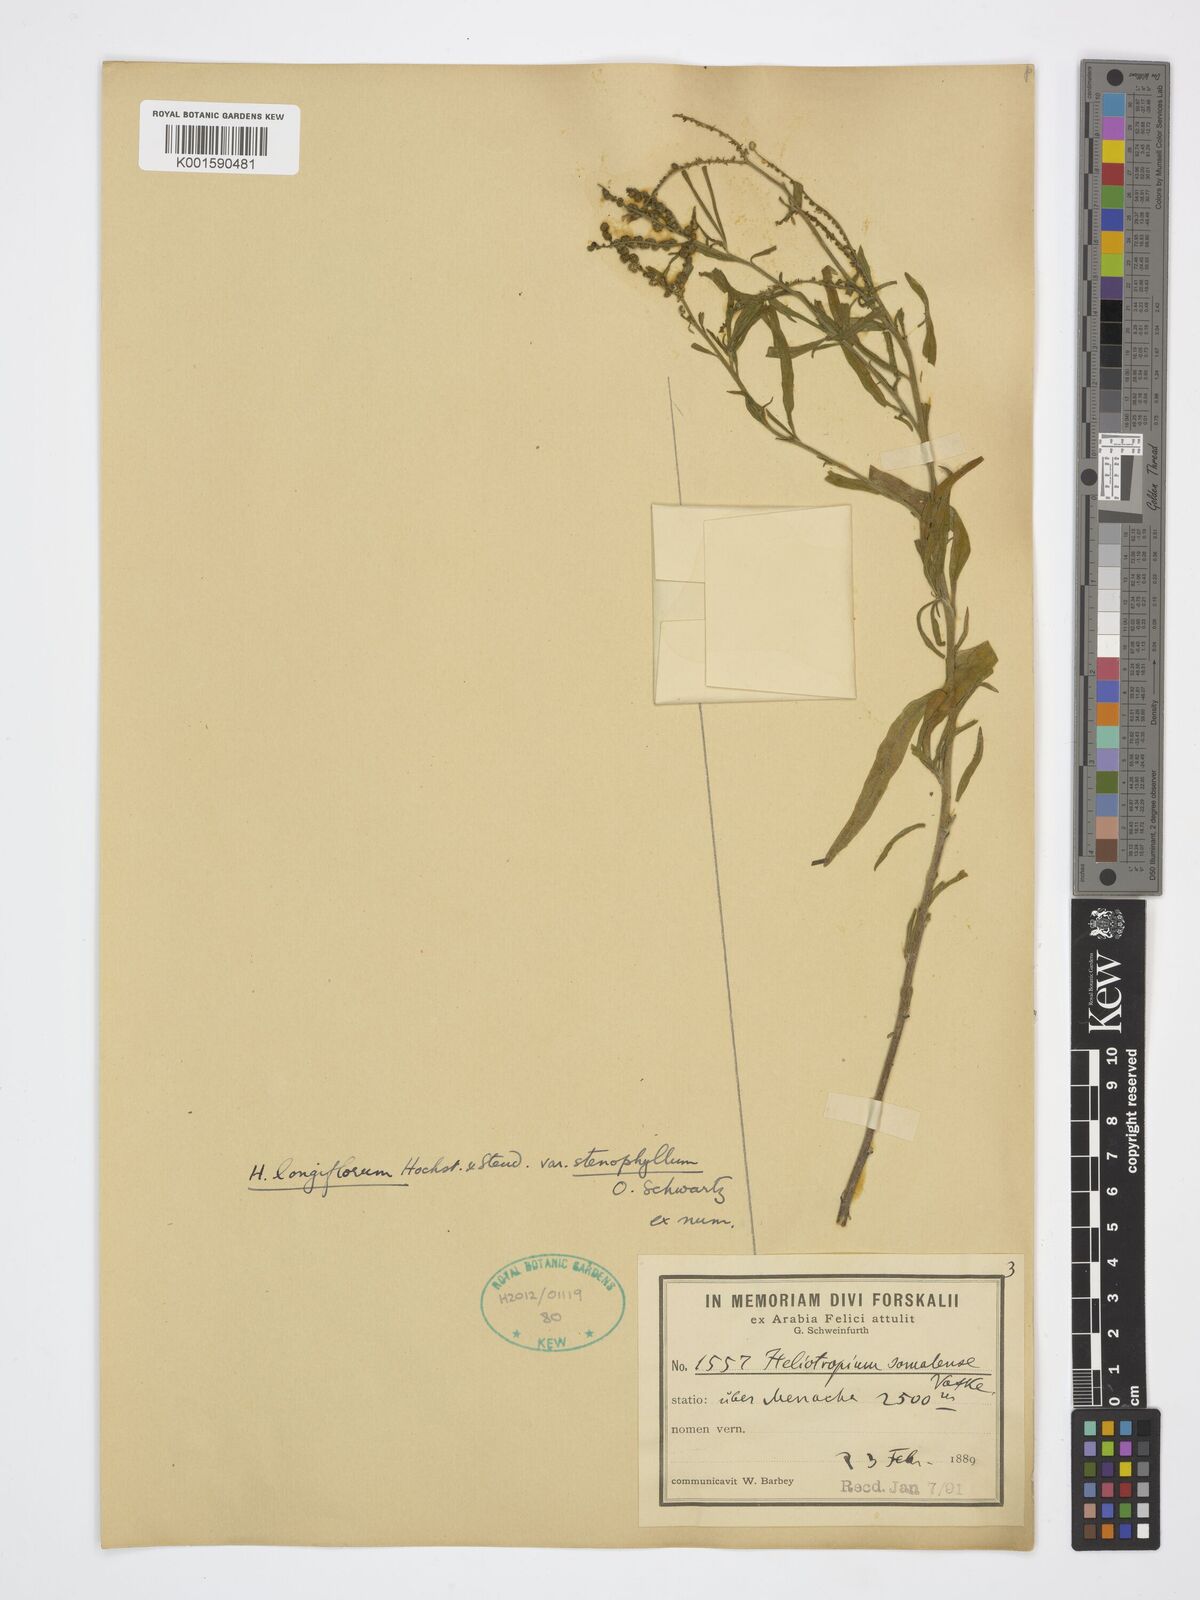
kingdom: Plantae
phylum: Tracheophyta
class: Magnoliopsida
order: Boraginales
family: Heliotropiaceae
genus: Heliotropium
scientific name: Heliotropium longiflorum
